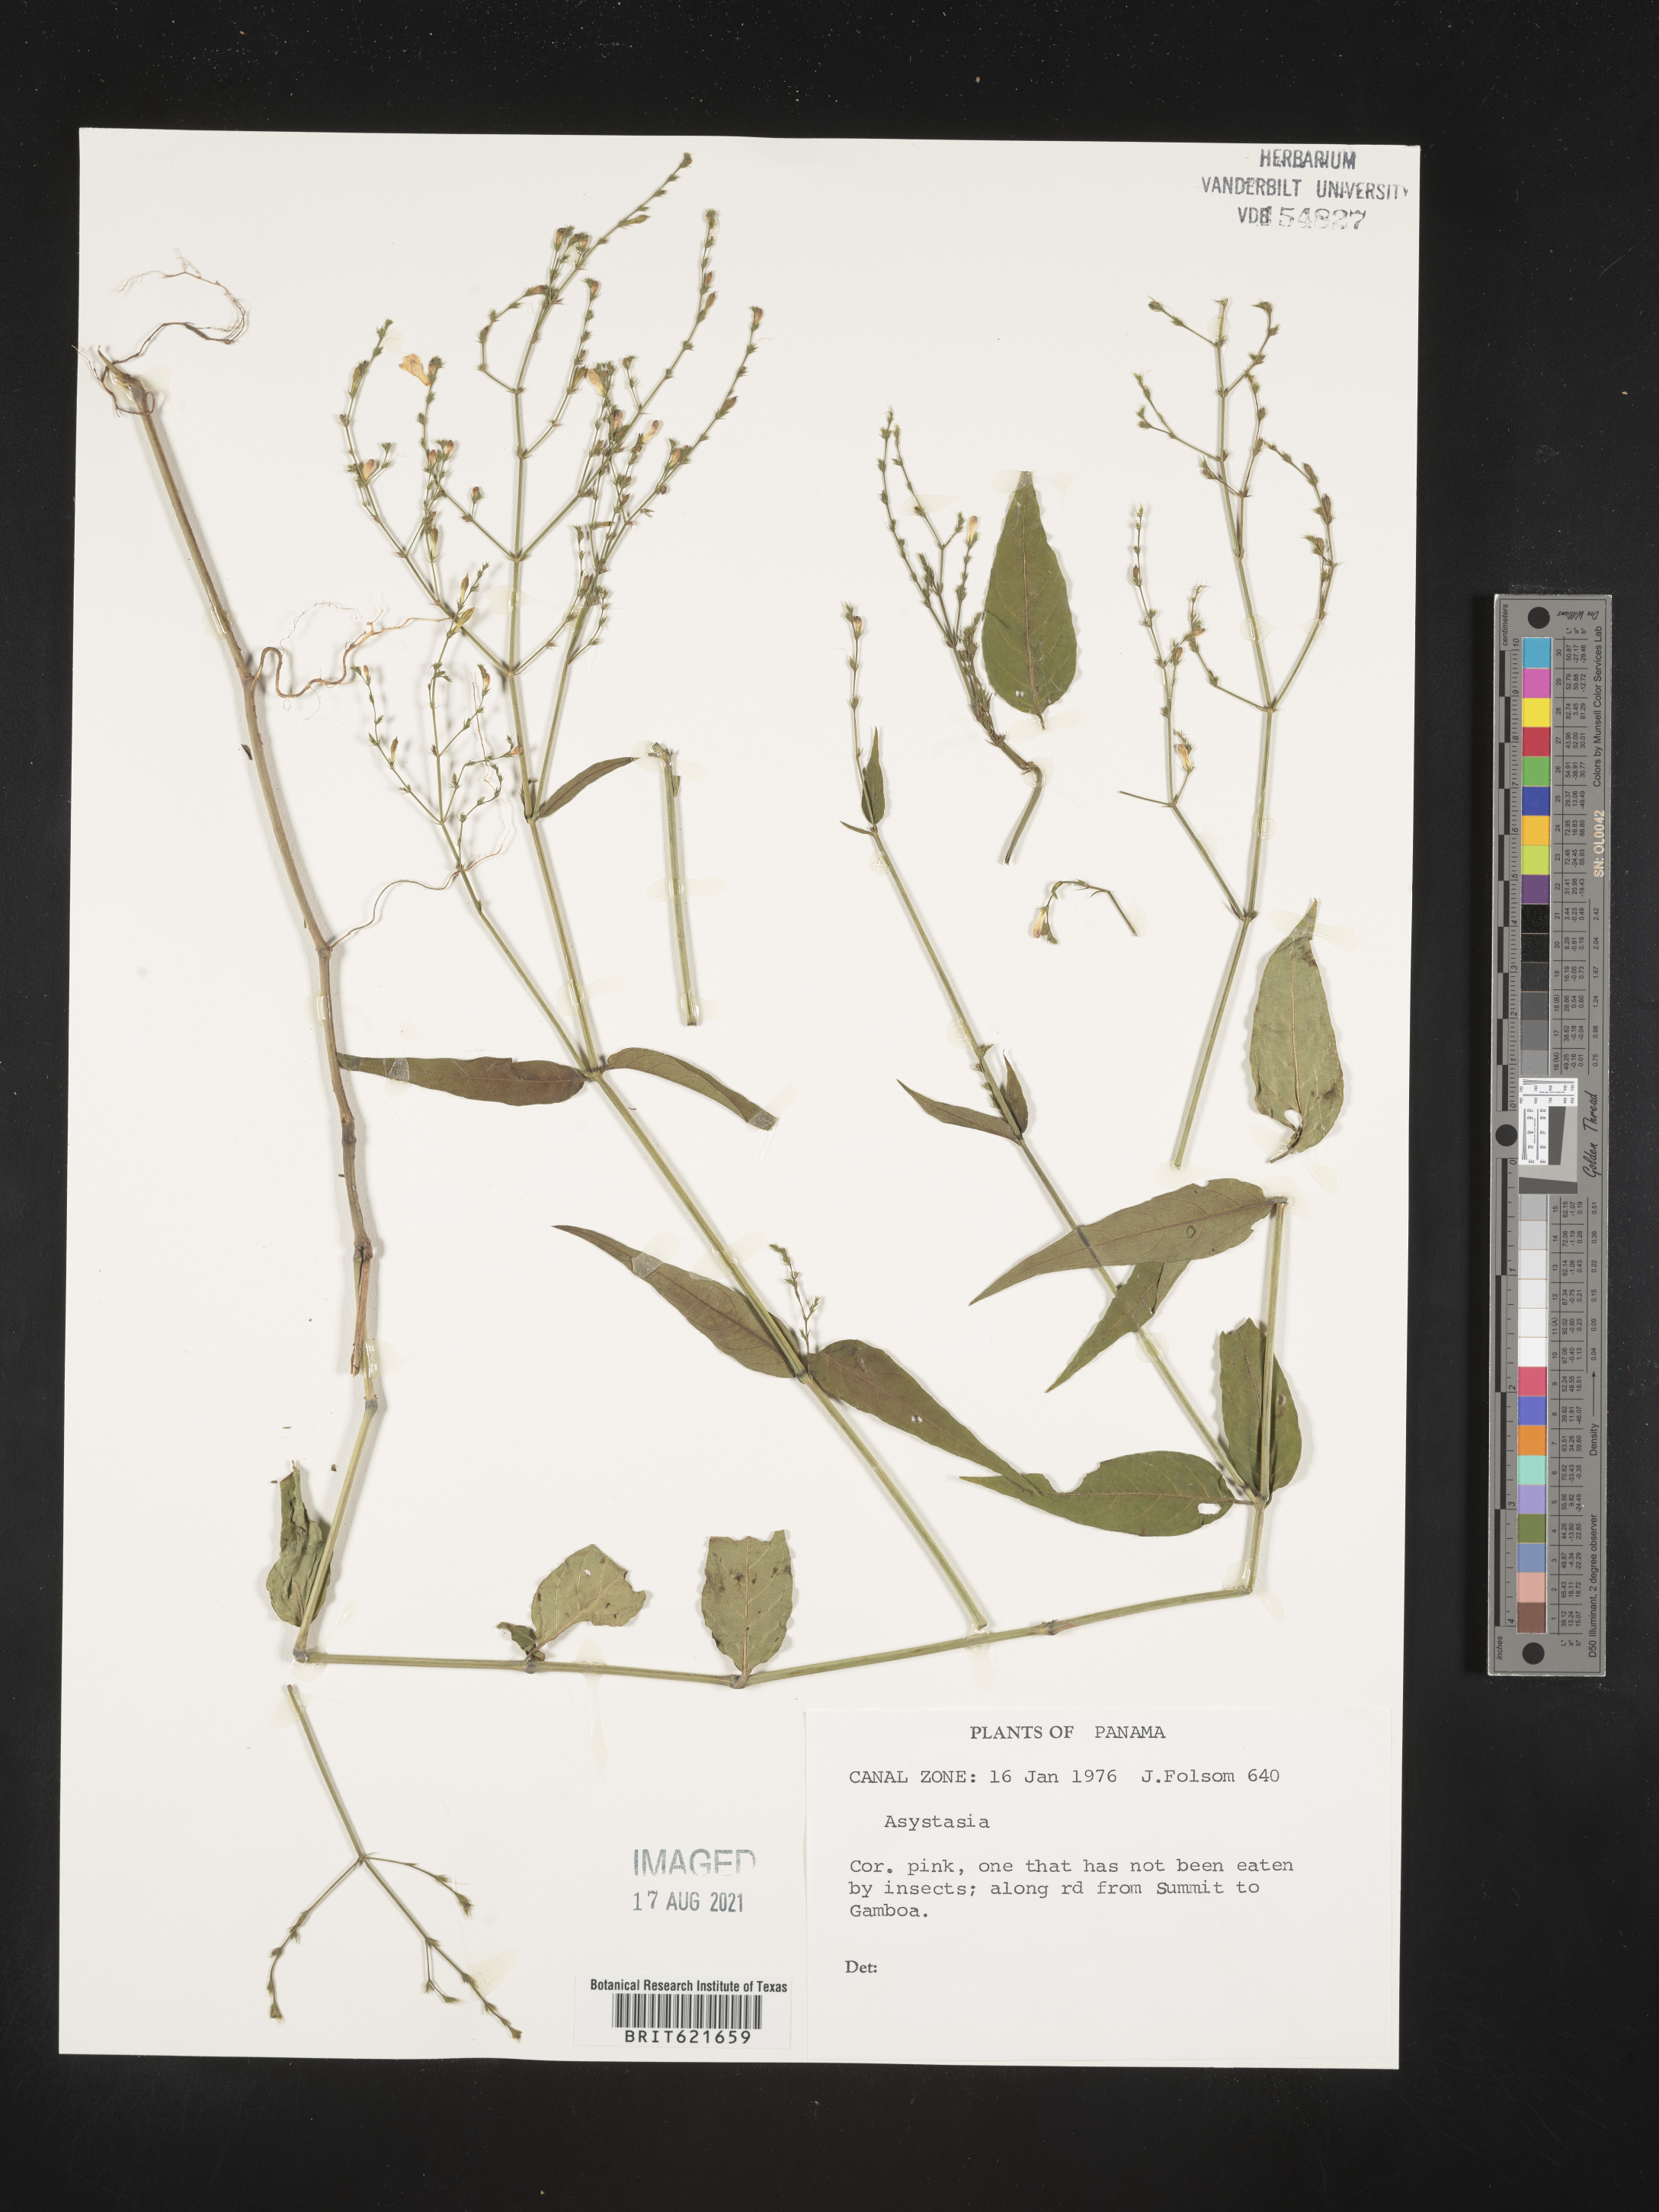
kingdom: Plantae
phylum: Tracheophyta
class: Magnoliopsida
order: Lamiales
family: Acanthaceae
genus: Asystasia
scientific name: Asystasia
